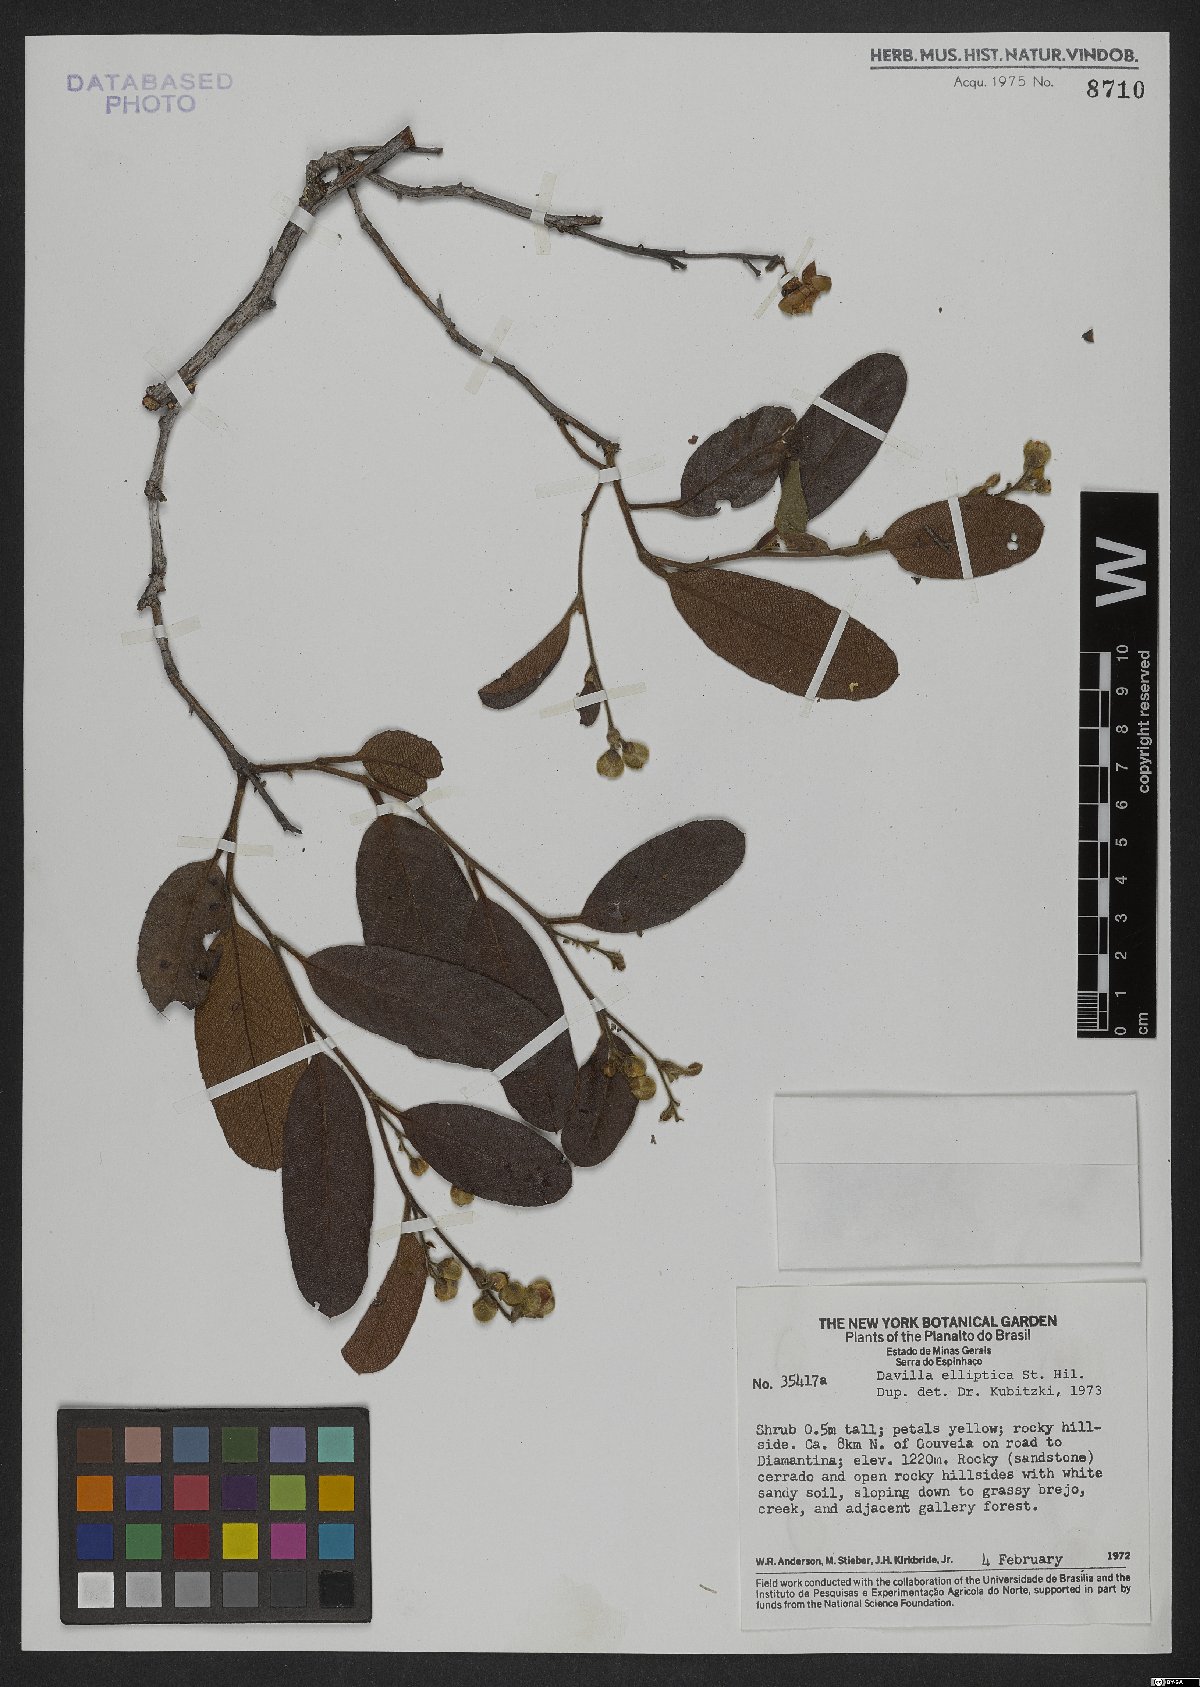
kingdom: Plantae
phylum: Tracheophyta
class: Magnoliopsida
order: Dilleniales
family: Dilleniaceae
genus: Davilla
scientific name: Davilla elliptica
